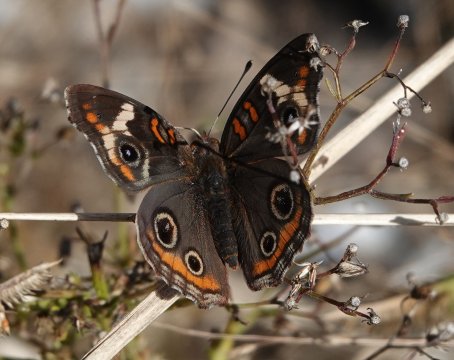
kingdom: Animalia
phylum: Arthropoda
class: Insecta
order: Lepidoptera
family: Nymphalidae
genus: Junonia
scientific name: Junonia coenia
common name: Common Buckeye
